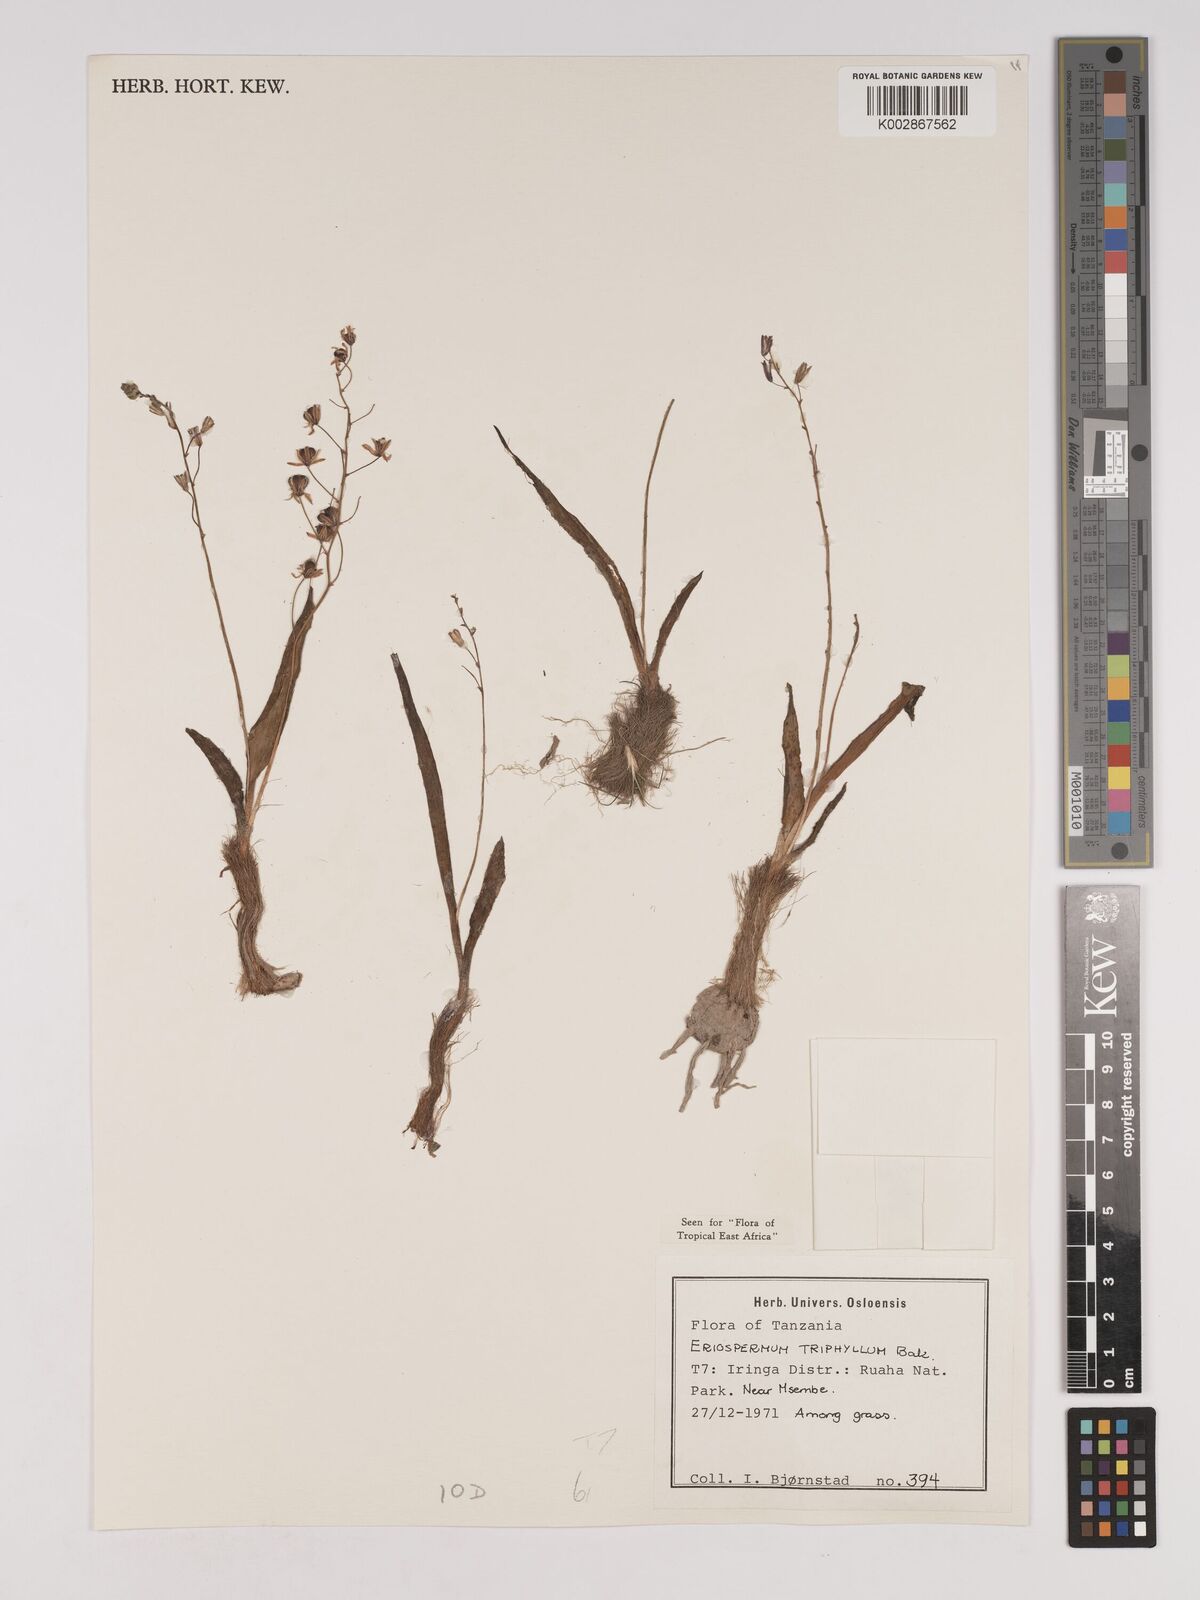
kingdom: Plantae
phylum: Tracheophyta
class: Liliopsida
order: Asparagales
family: Asparagaceae
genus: Eriospermum
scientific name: Eriospermum triphyllum
